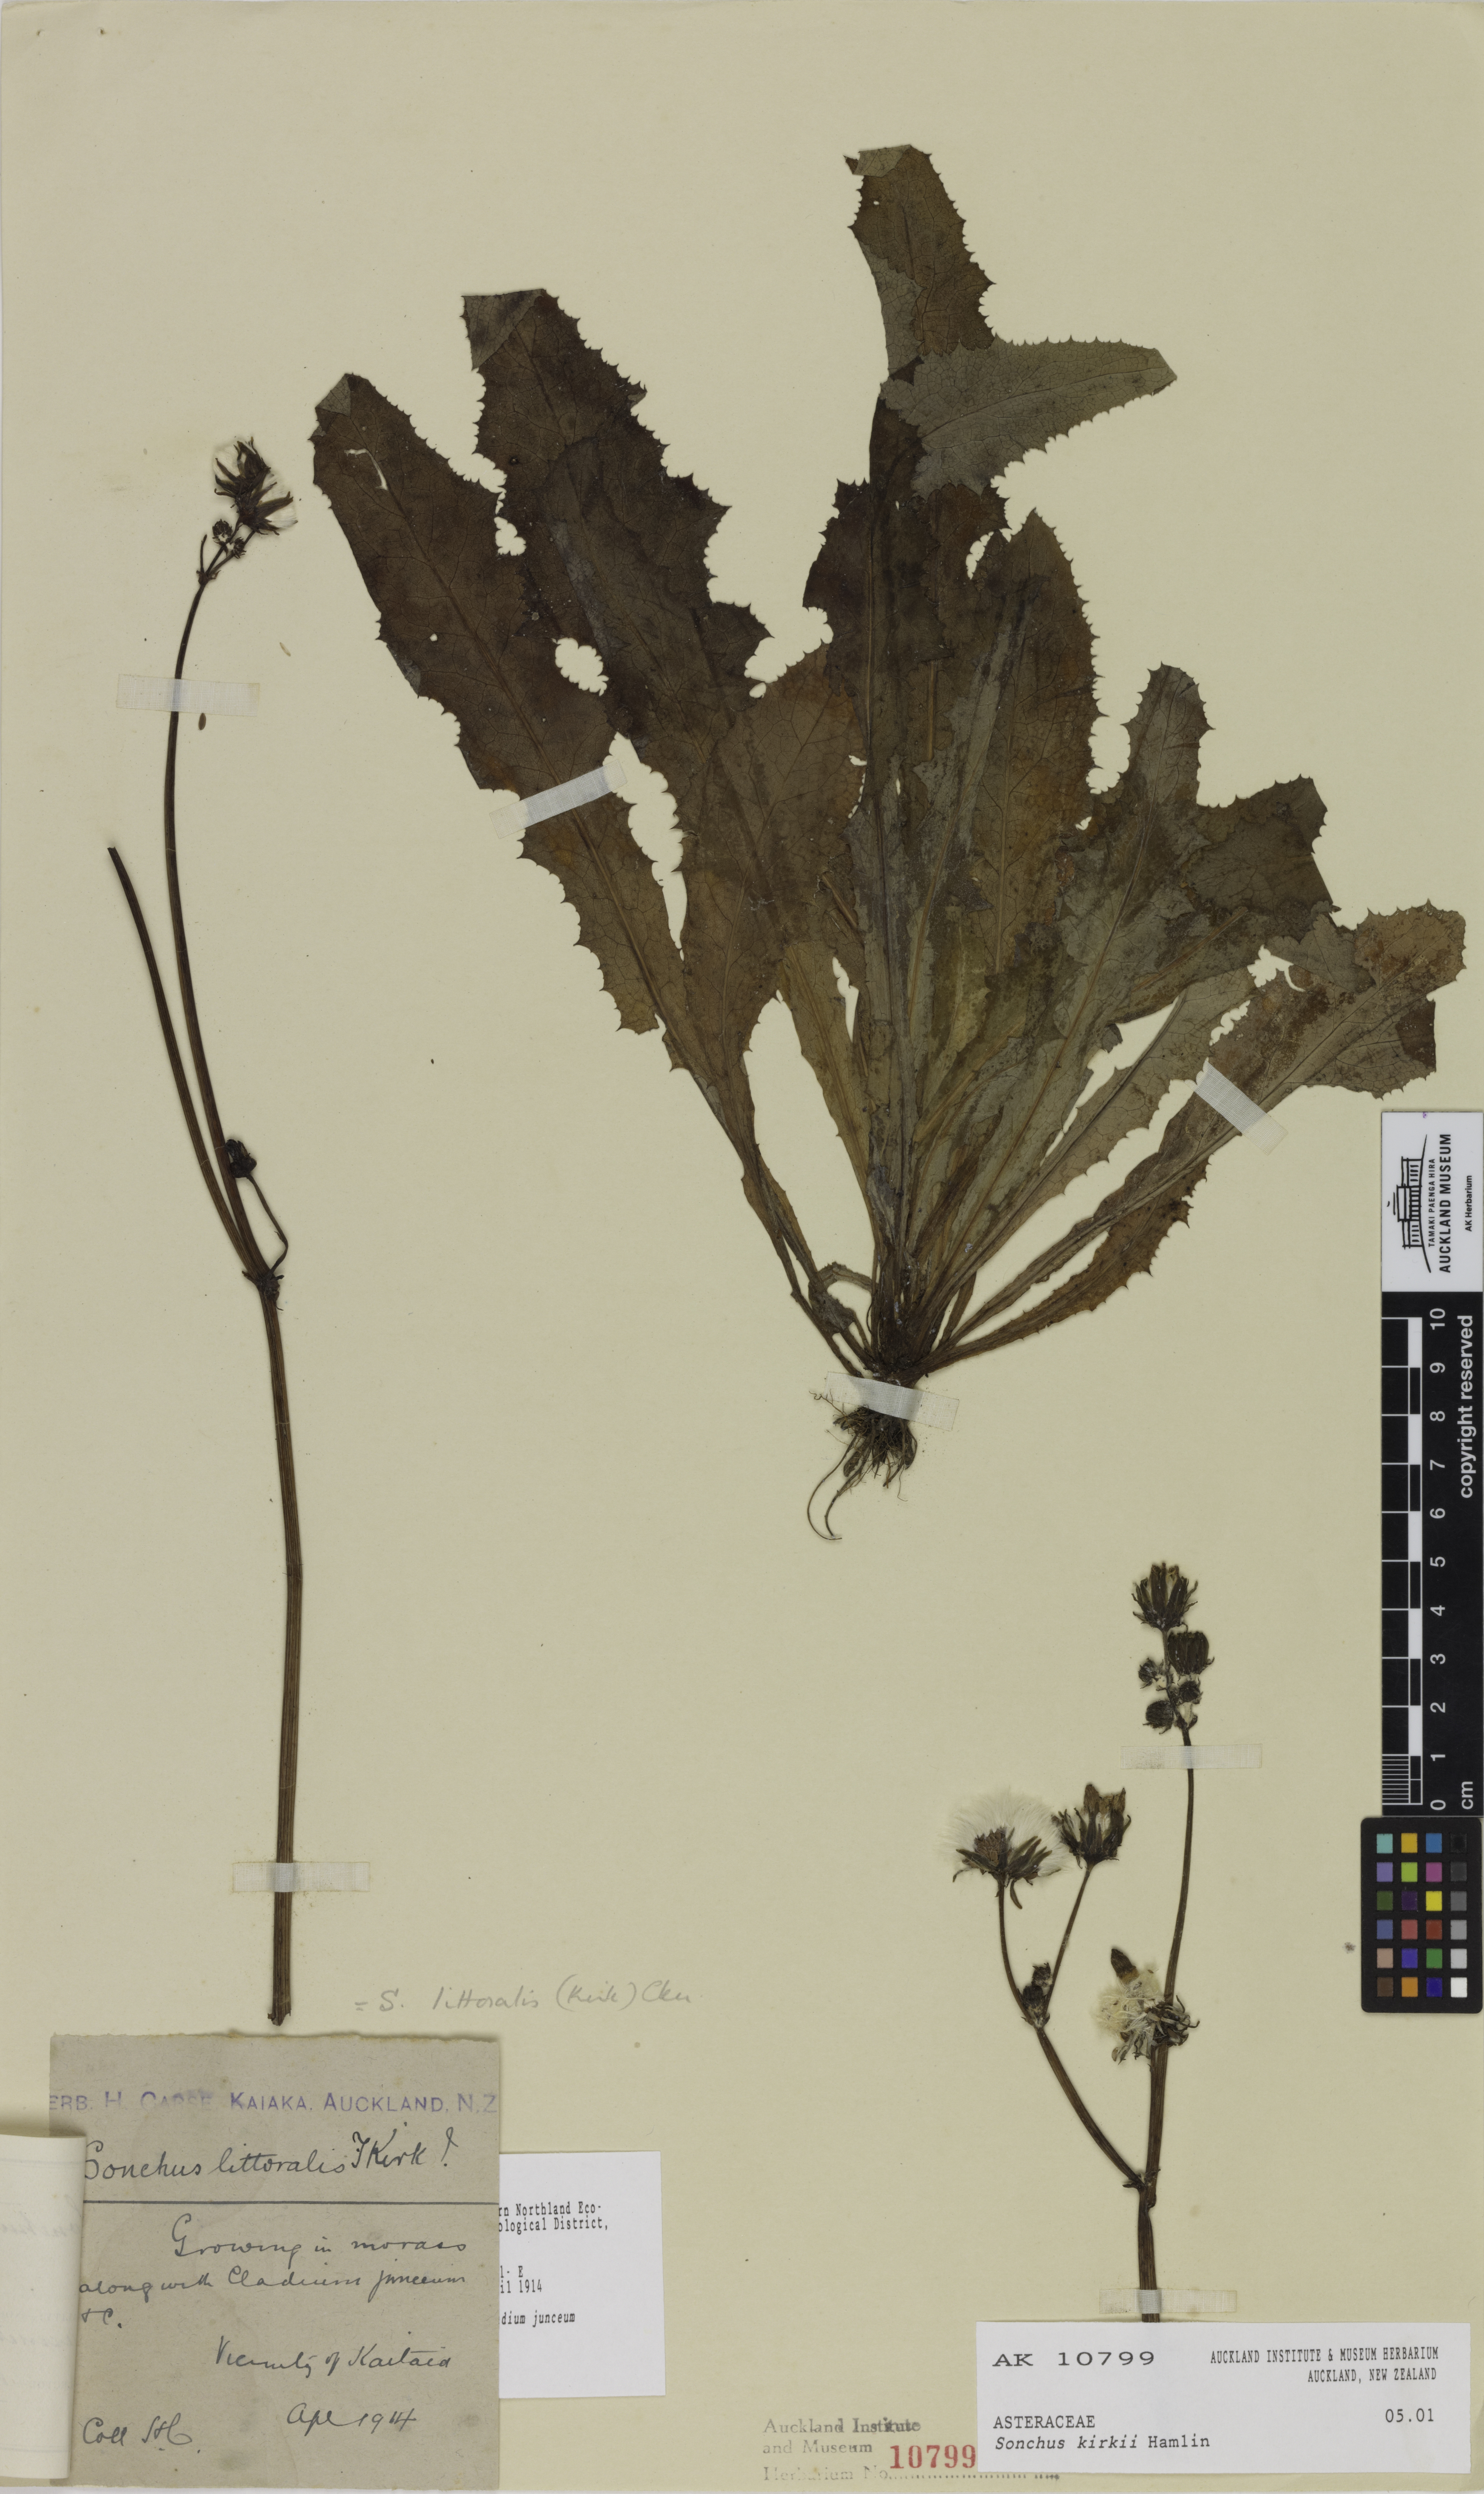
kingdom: Plantae
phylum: Tracheophyta
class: Magnoliopsida
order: Asterales
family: Asteraceae
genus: Sonchus
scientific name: Sonchus kirkii
